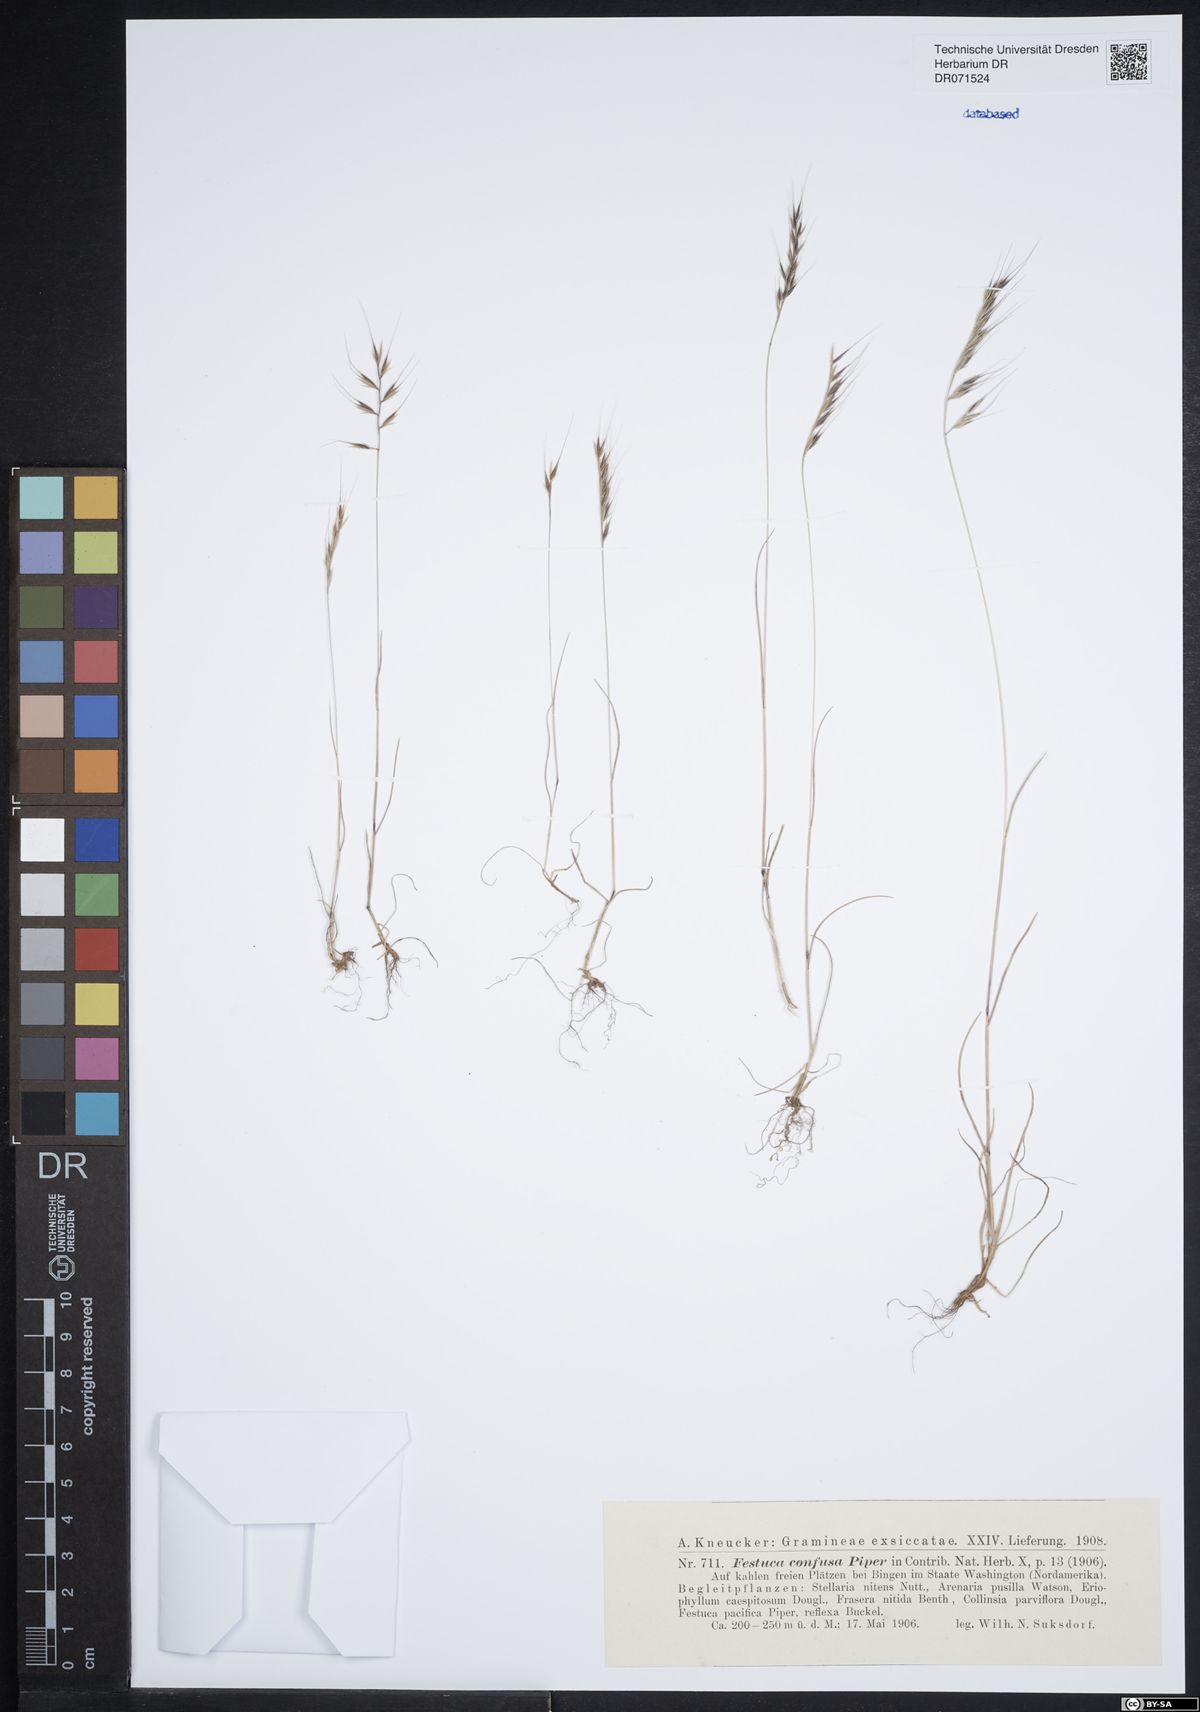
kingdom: Plantae
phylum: Tracheophyta
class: Liliopsida
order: Poales
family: Poaceae
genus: Festuca
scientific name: Festuca confusa
